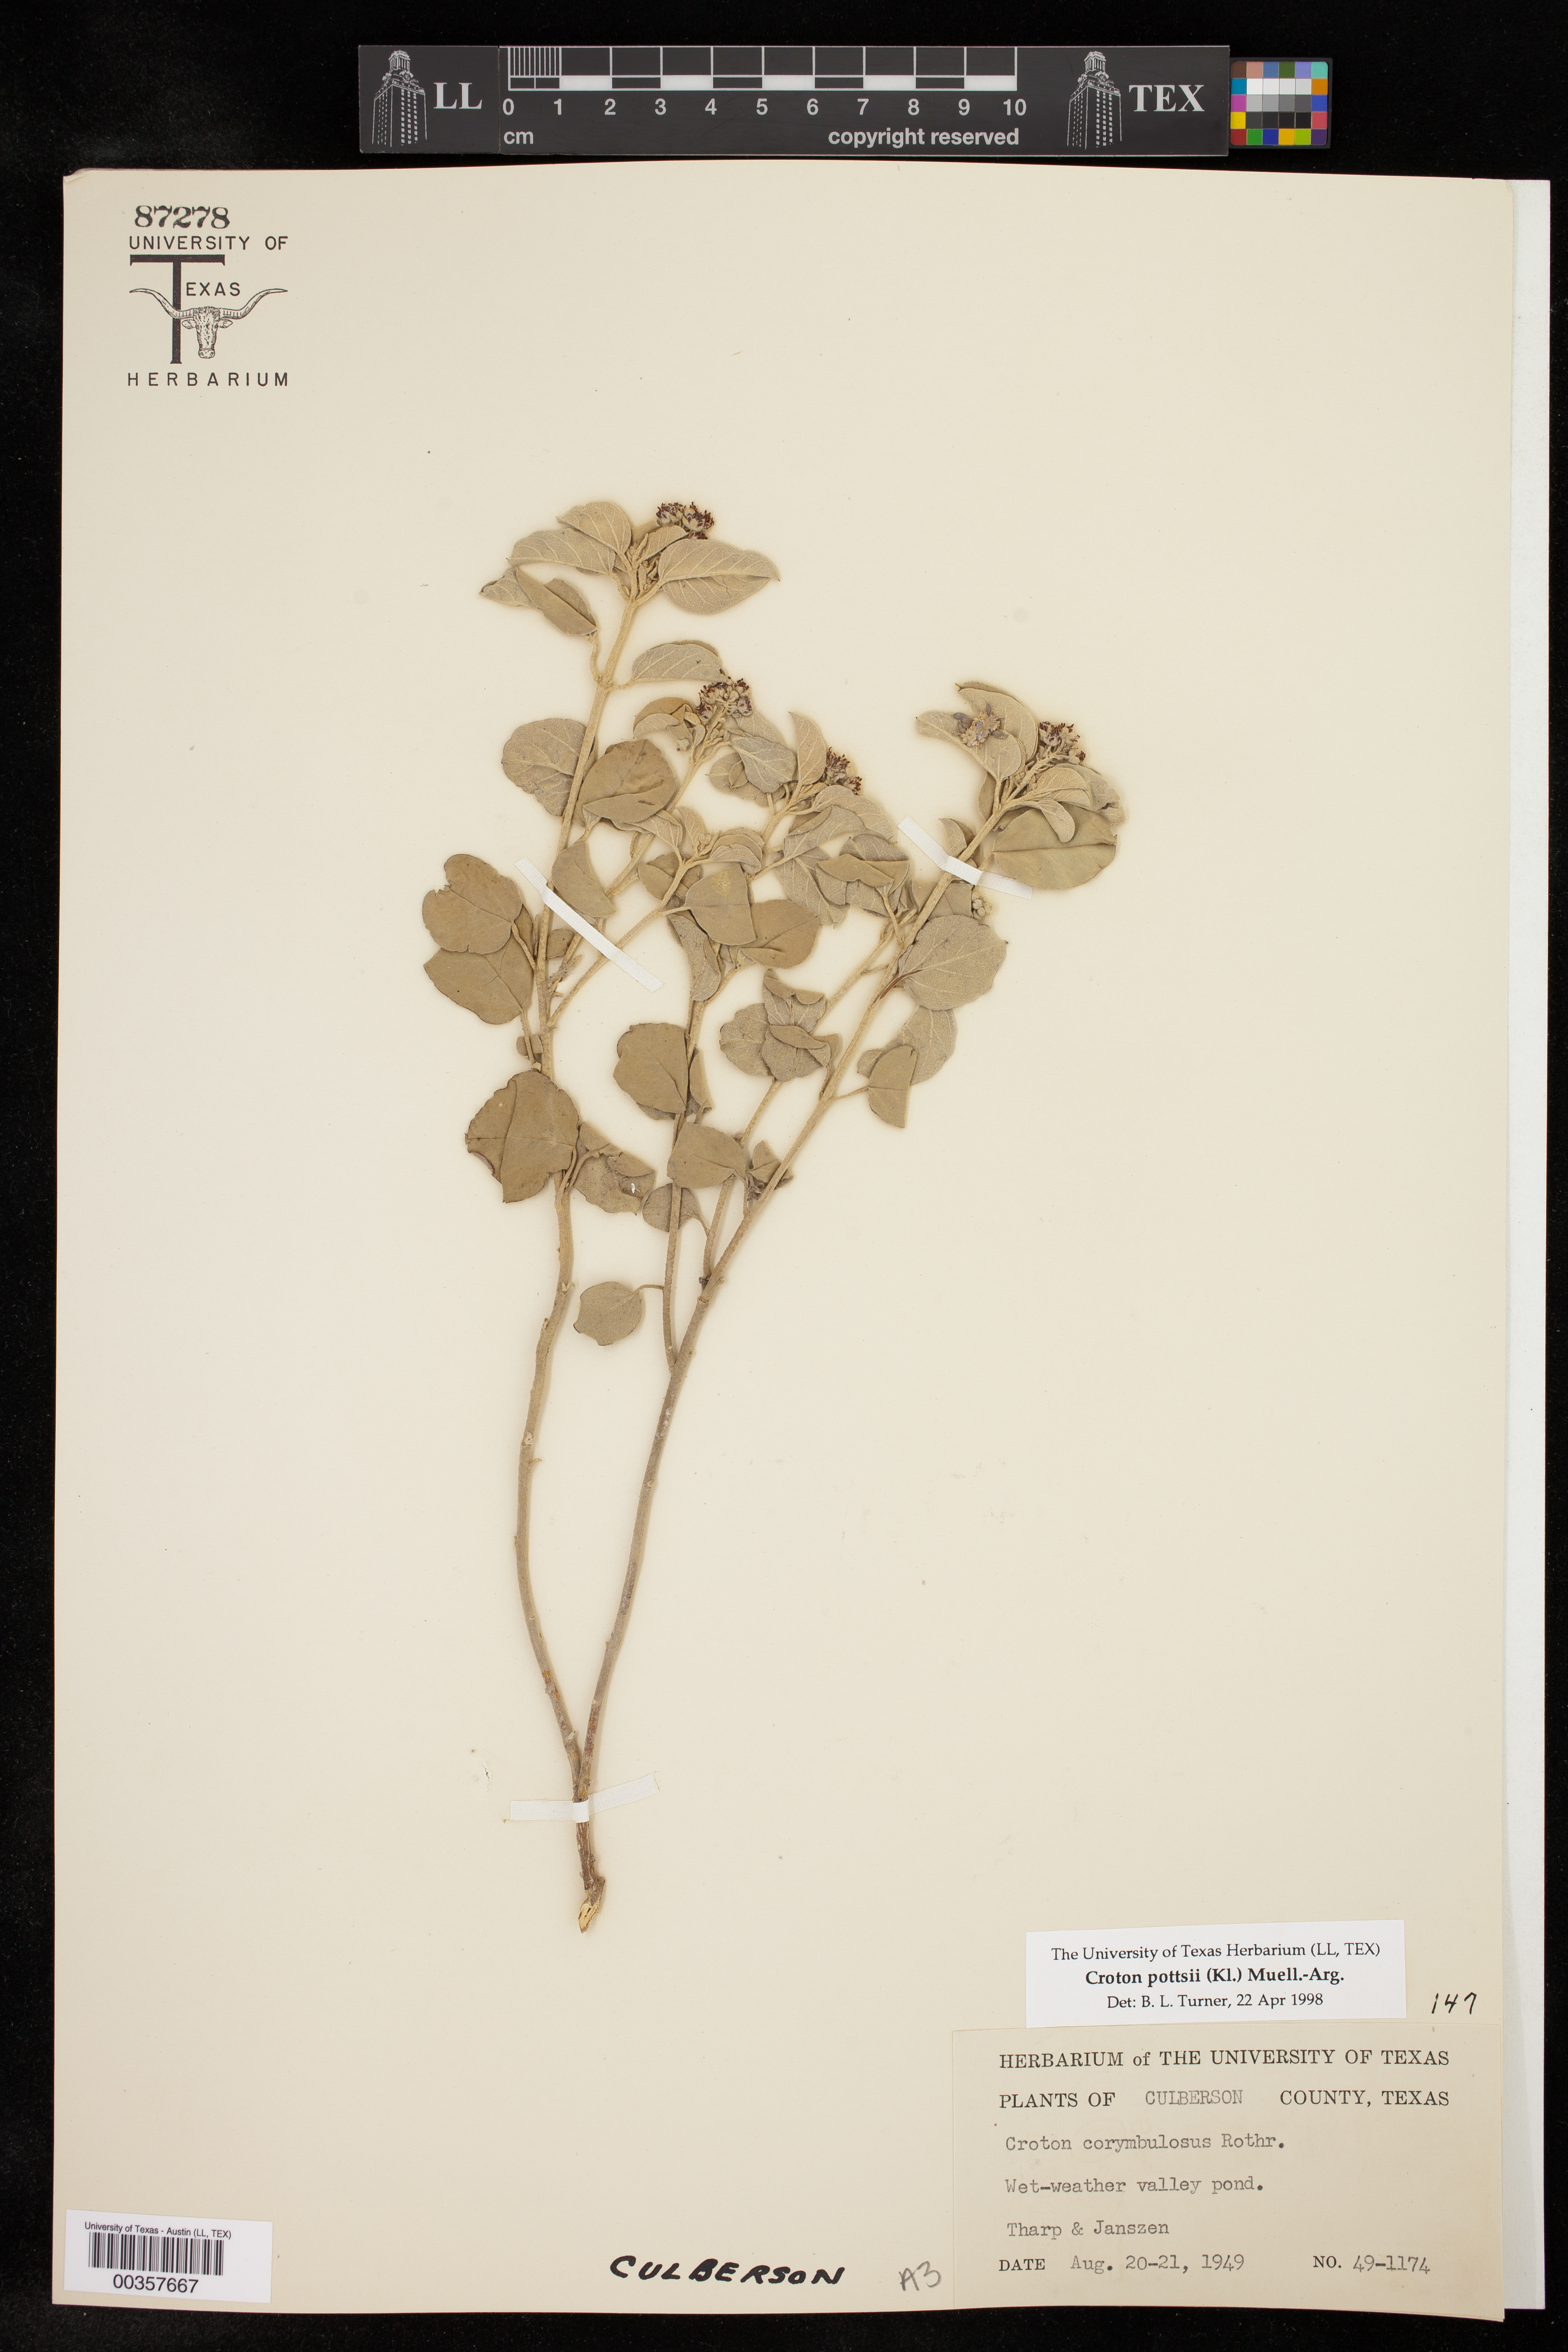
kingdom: Plantae
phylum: Tracheophyta
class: Magnoliopsida
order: Malpighiales
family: Euphorbiaceae
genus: Croton
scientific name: Croton pottsii
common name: Leatherweed
